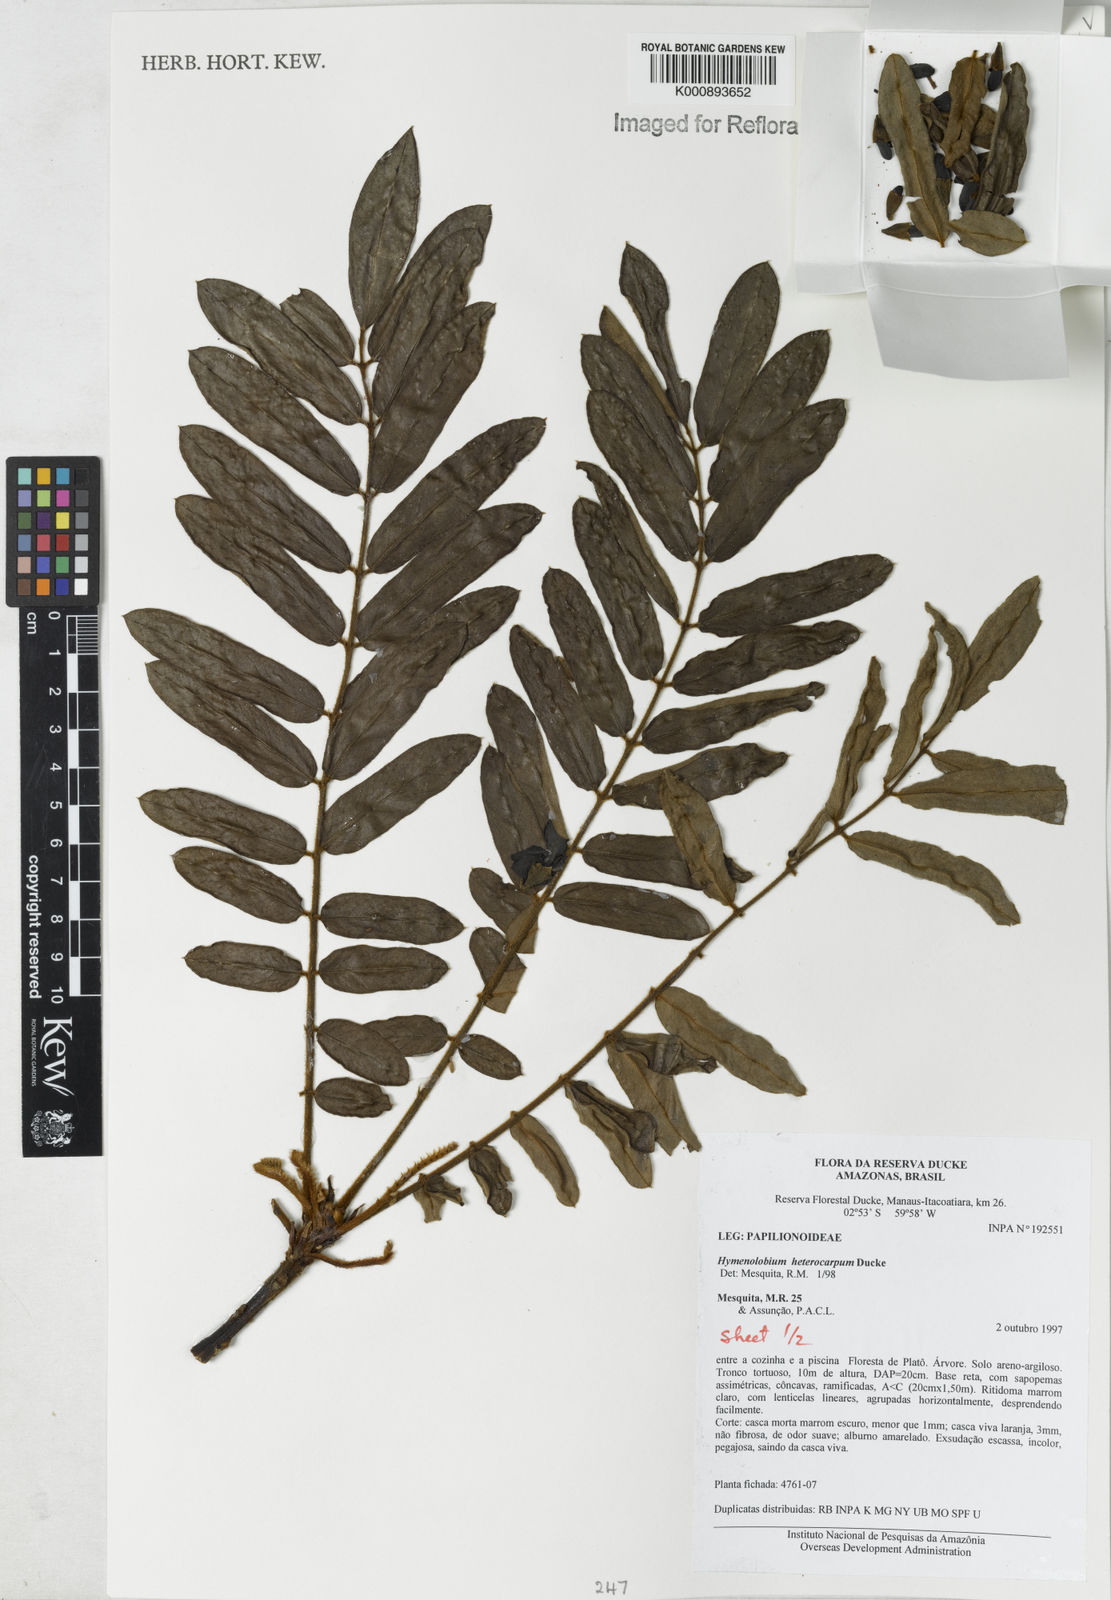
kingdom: Plantae
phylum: Tracheophyta
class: Magnoliopsida
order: Fabales
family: Fabaceae
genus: Hymenolobium
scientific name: Hymenolobium heterocarpum
